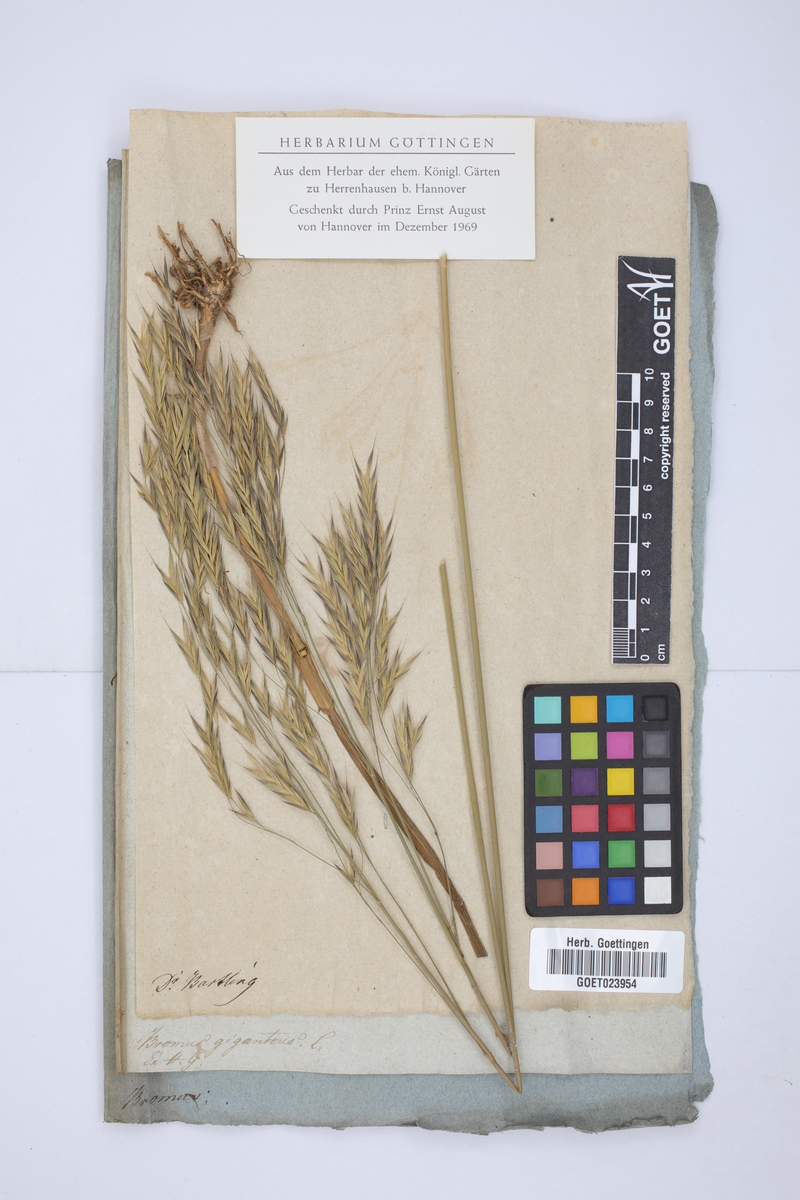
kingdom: Plantae
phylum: Tracheophyta
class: Liliopsida
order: Poales
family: Poaceae
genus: Lolium
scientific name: Lolium giganteum
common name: Giant fescue
